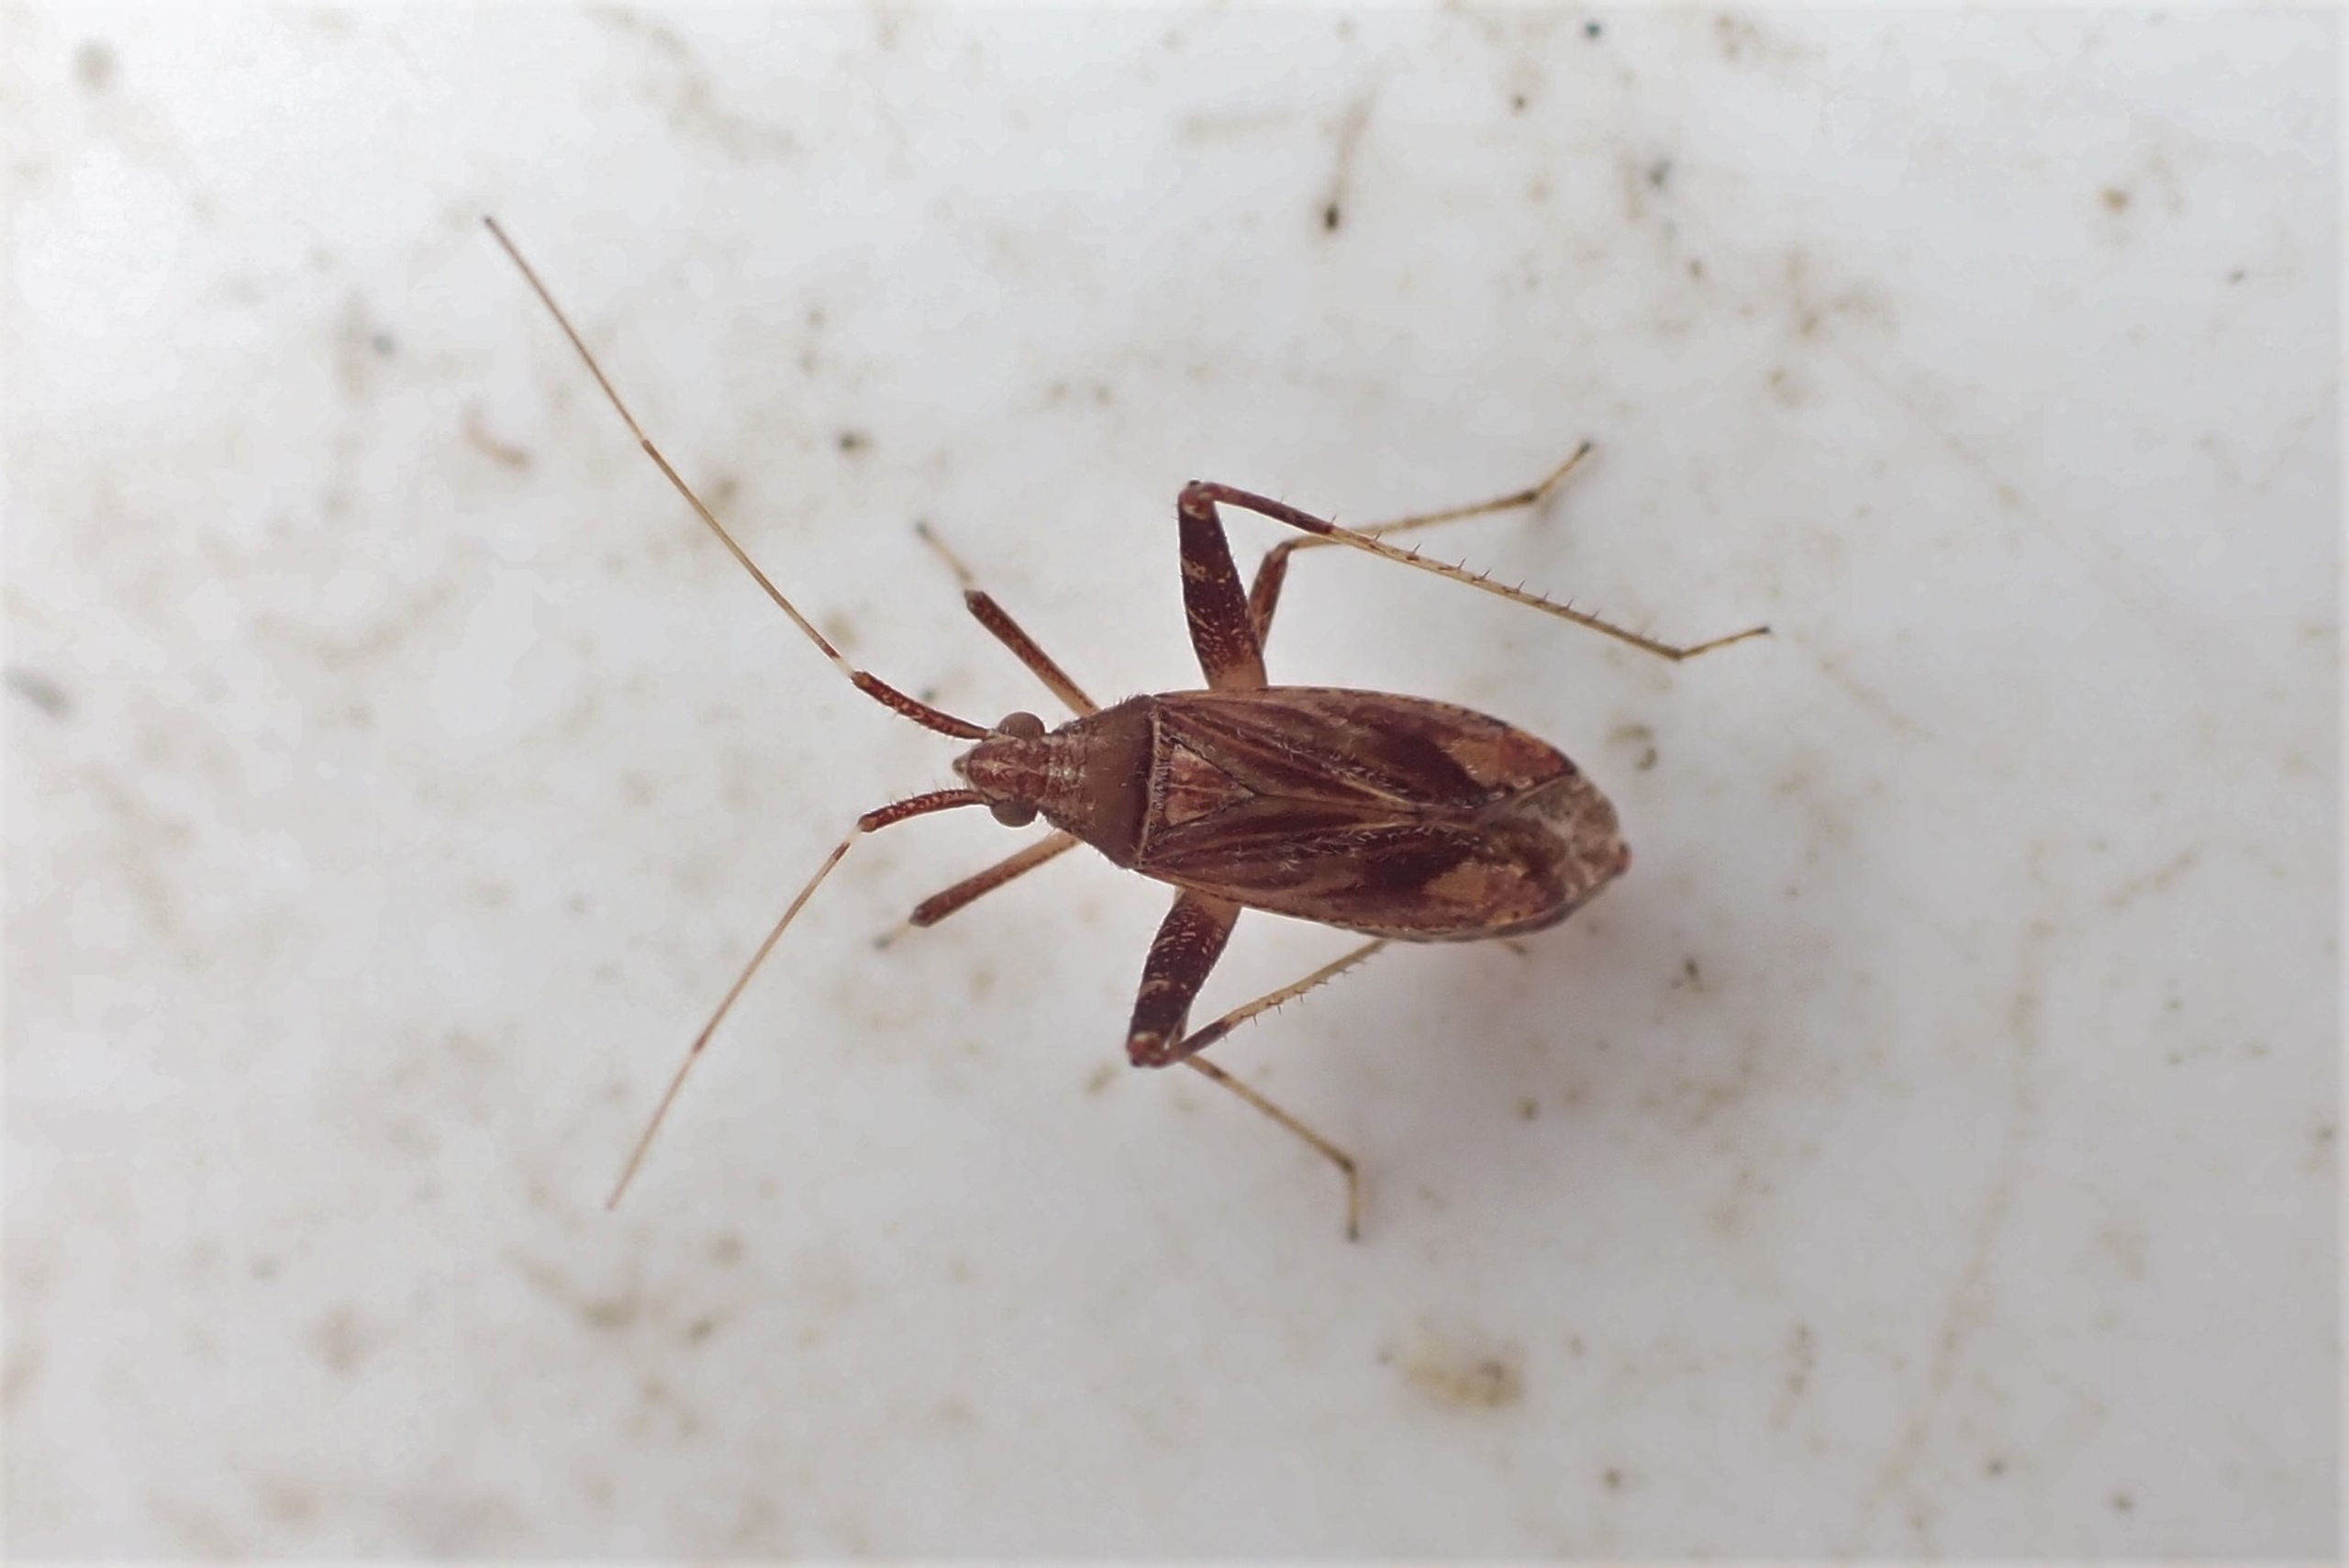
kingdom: Animalia
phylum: Arthropoda
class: Insecta
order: Hemiptera
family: Miridae
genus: Phytocoris
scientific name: Phytocoris varipes
